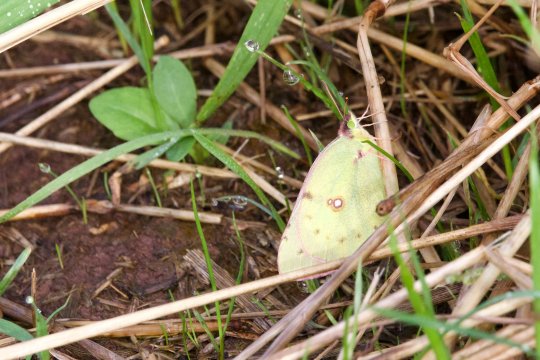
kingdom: Animalia
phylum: Arthropoda
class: Insecta
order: Lepidoptera
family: Pieridae
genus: Colias
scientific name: Colias philodice
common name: Clouded Sulphur
